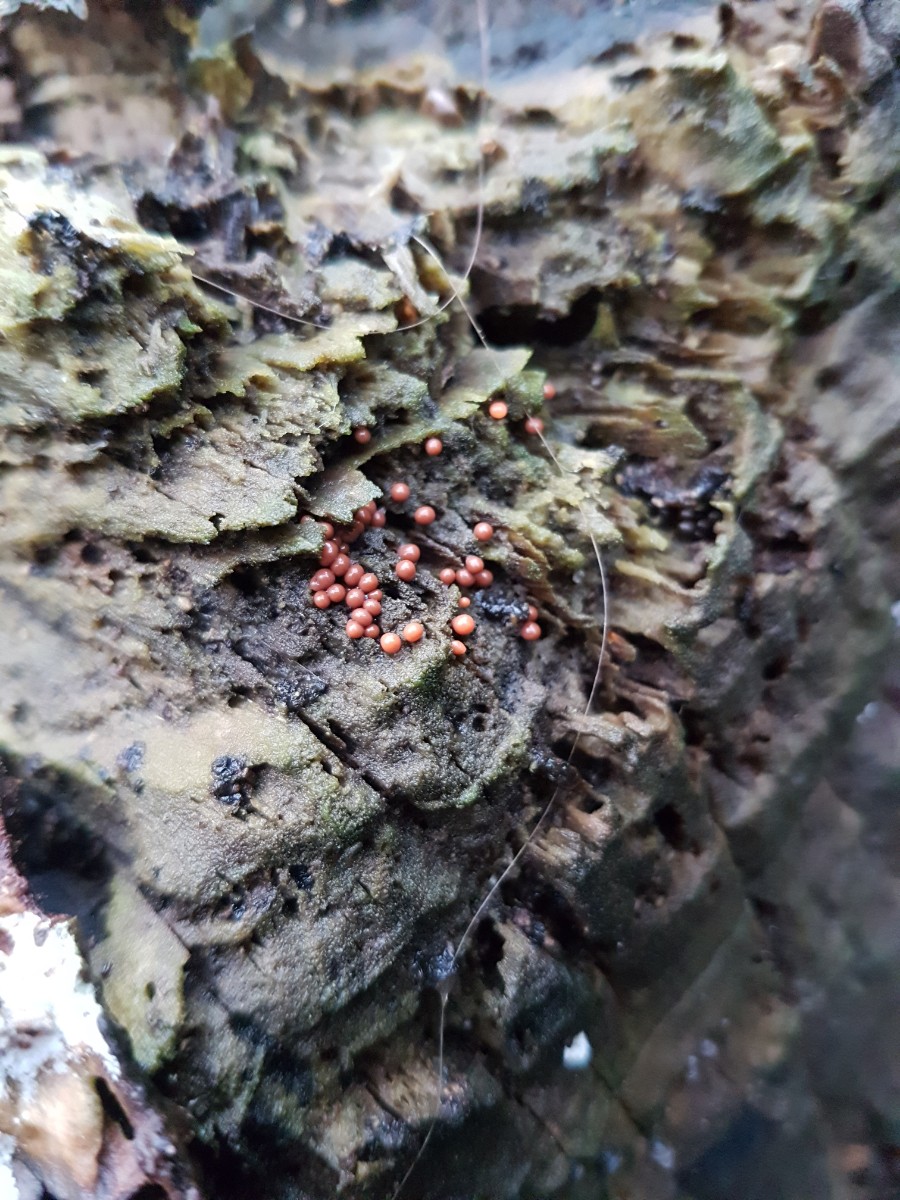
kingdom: Protozoa
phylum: Mycetozoa
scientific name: Mycetozoa
